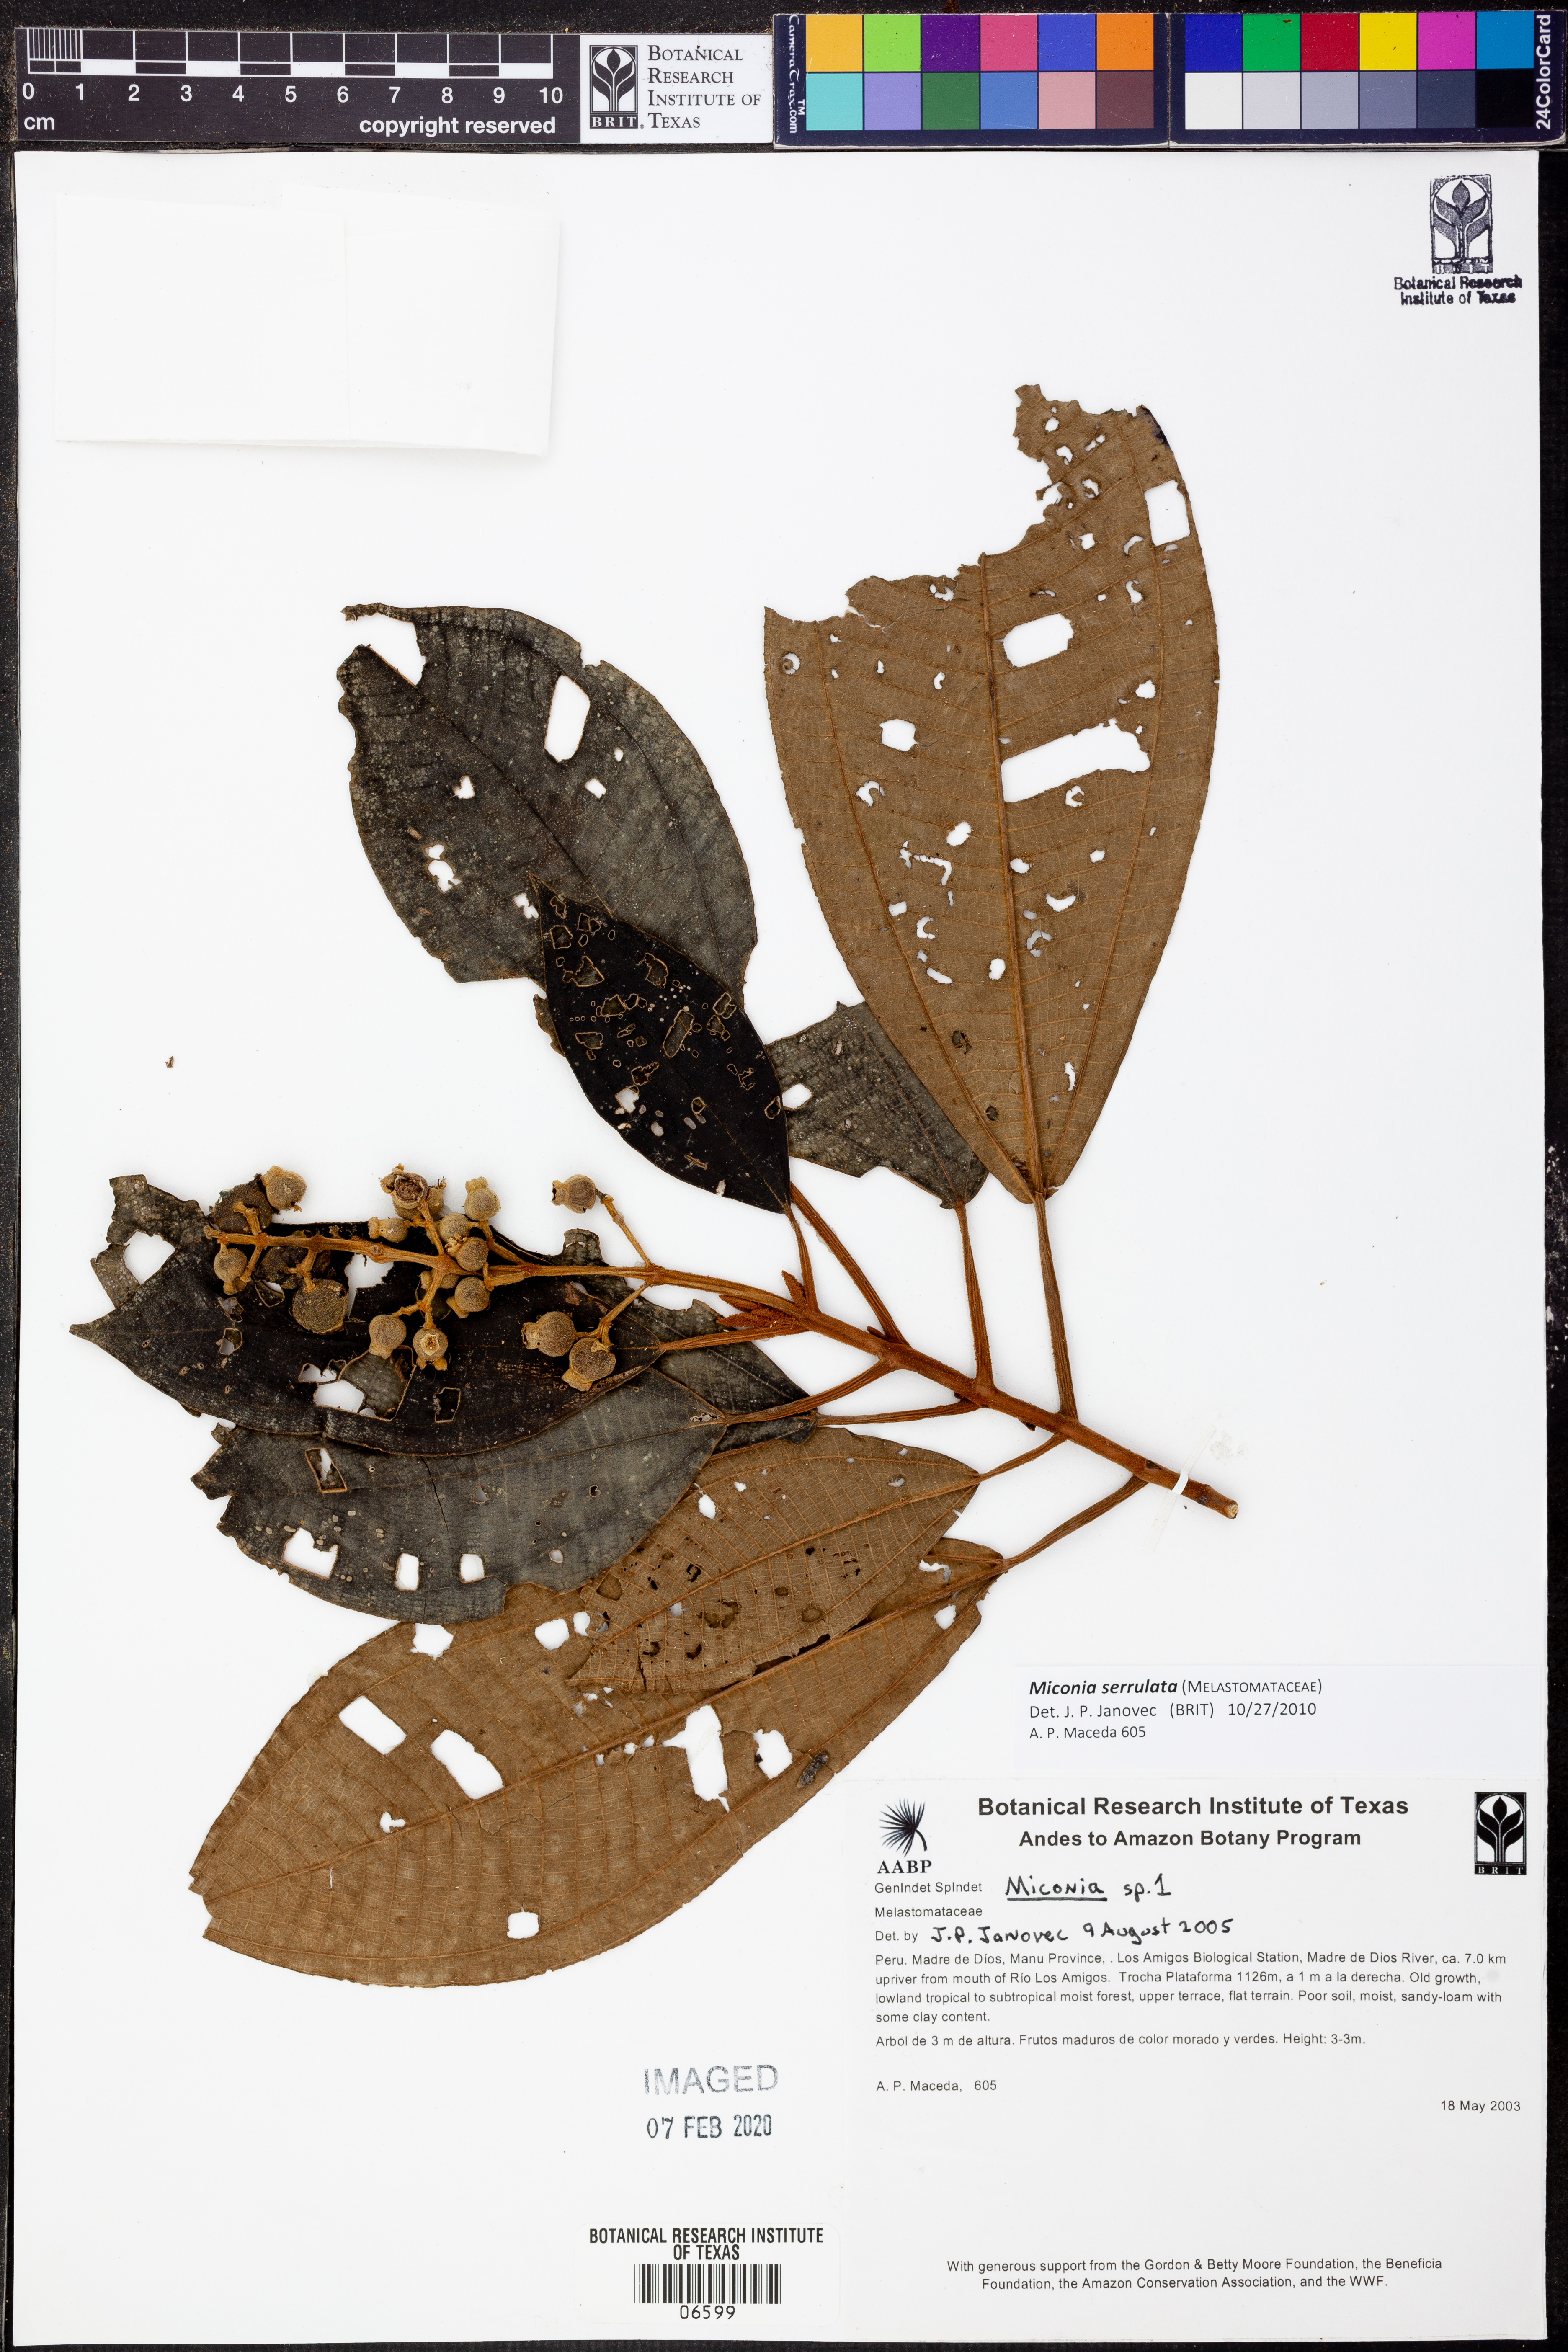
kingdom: Plantae
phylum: Tracheophyta
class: Magnoliopsida
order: Myrtales
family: Melastomataceae
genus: Miconia
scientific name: Miconia serrulata
